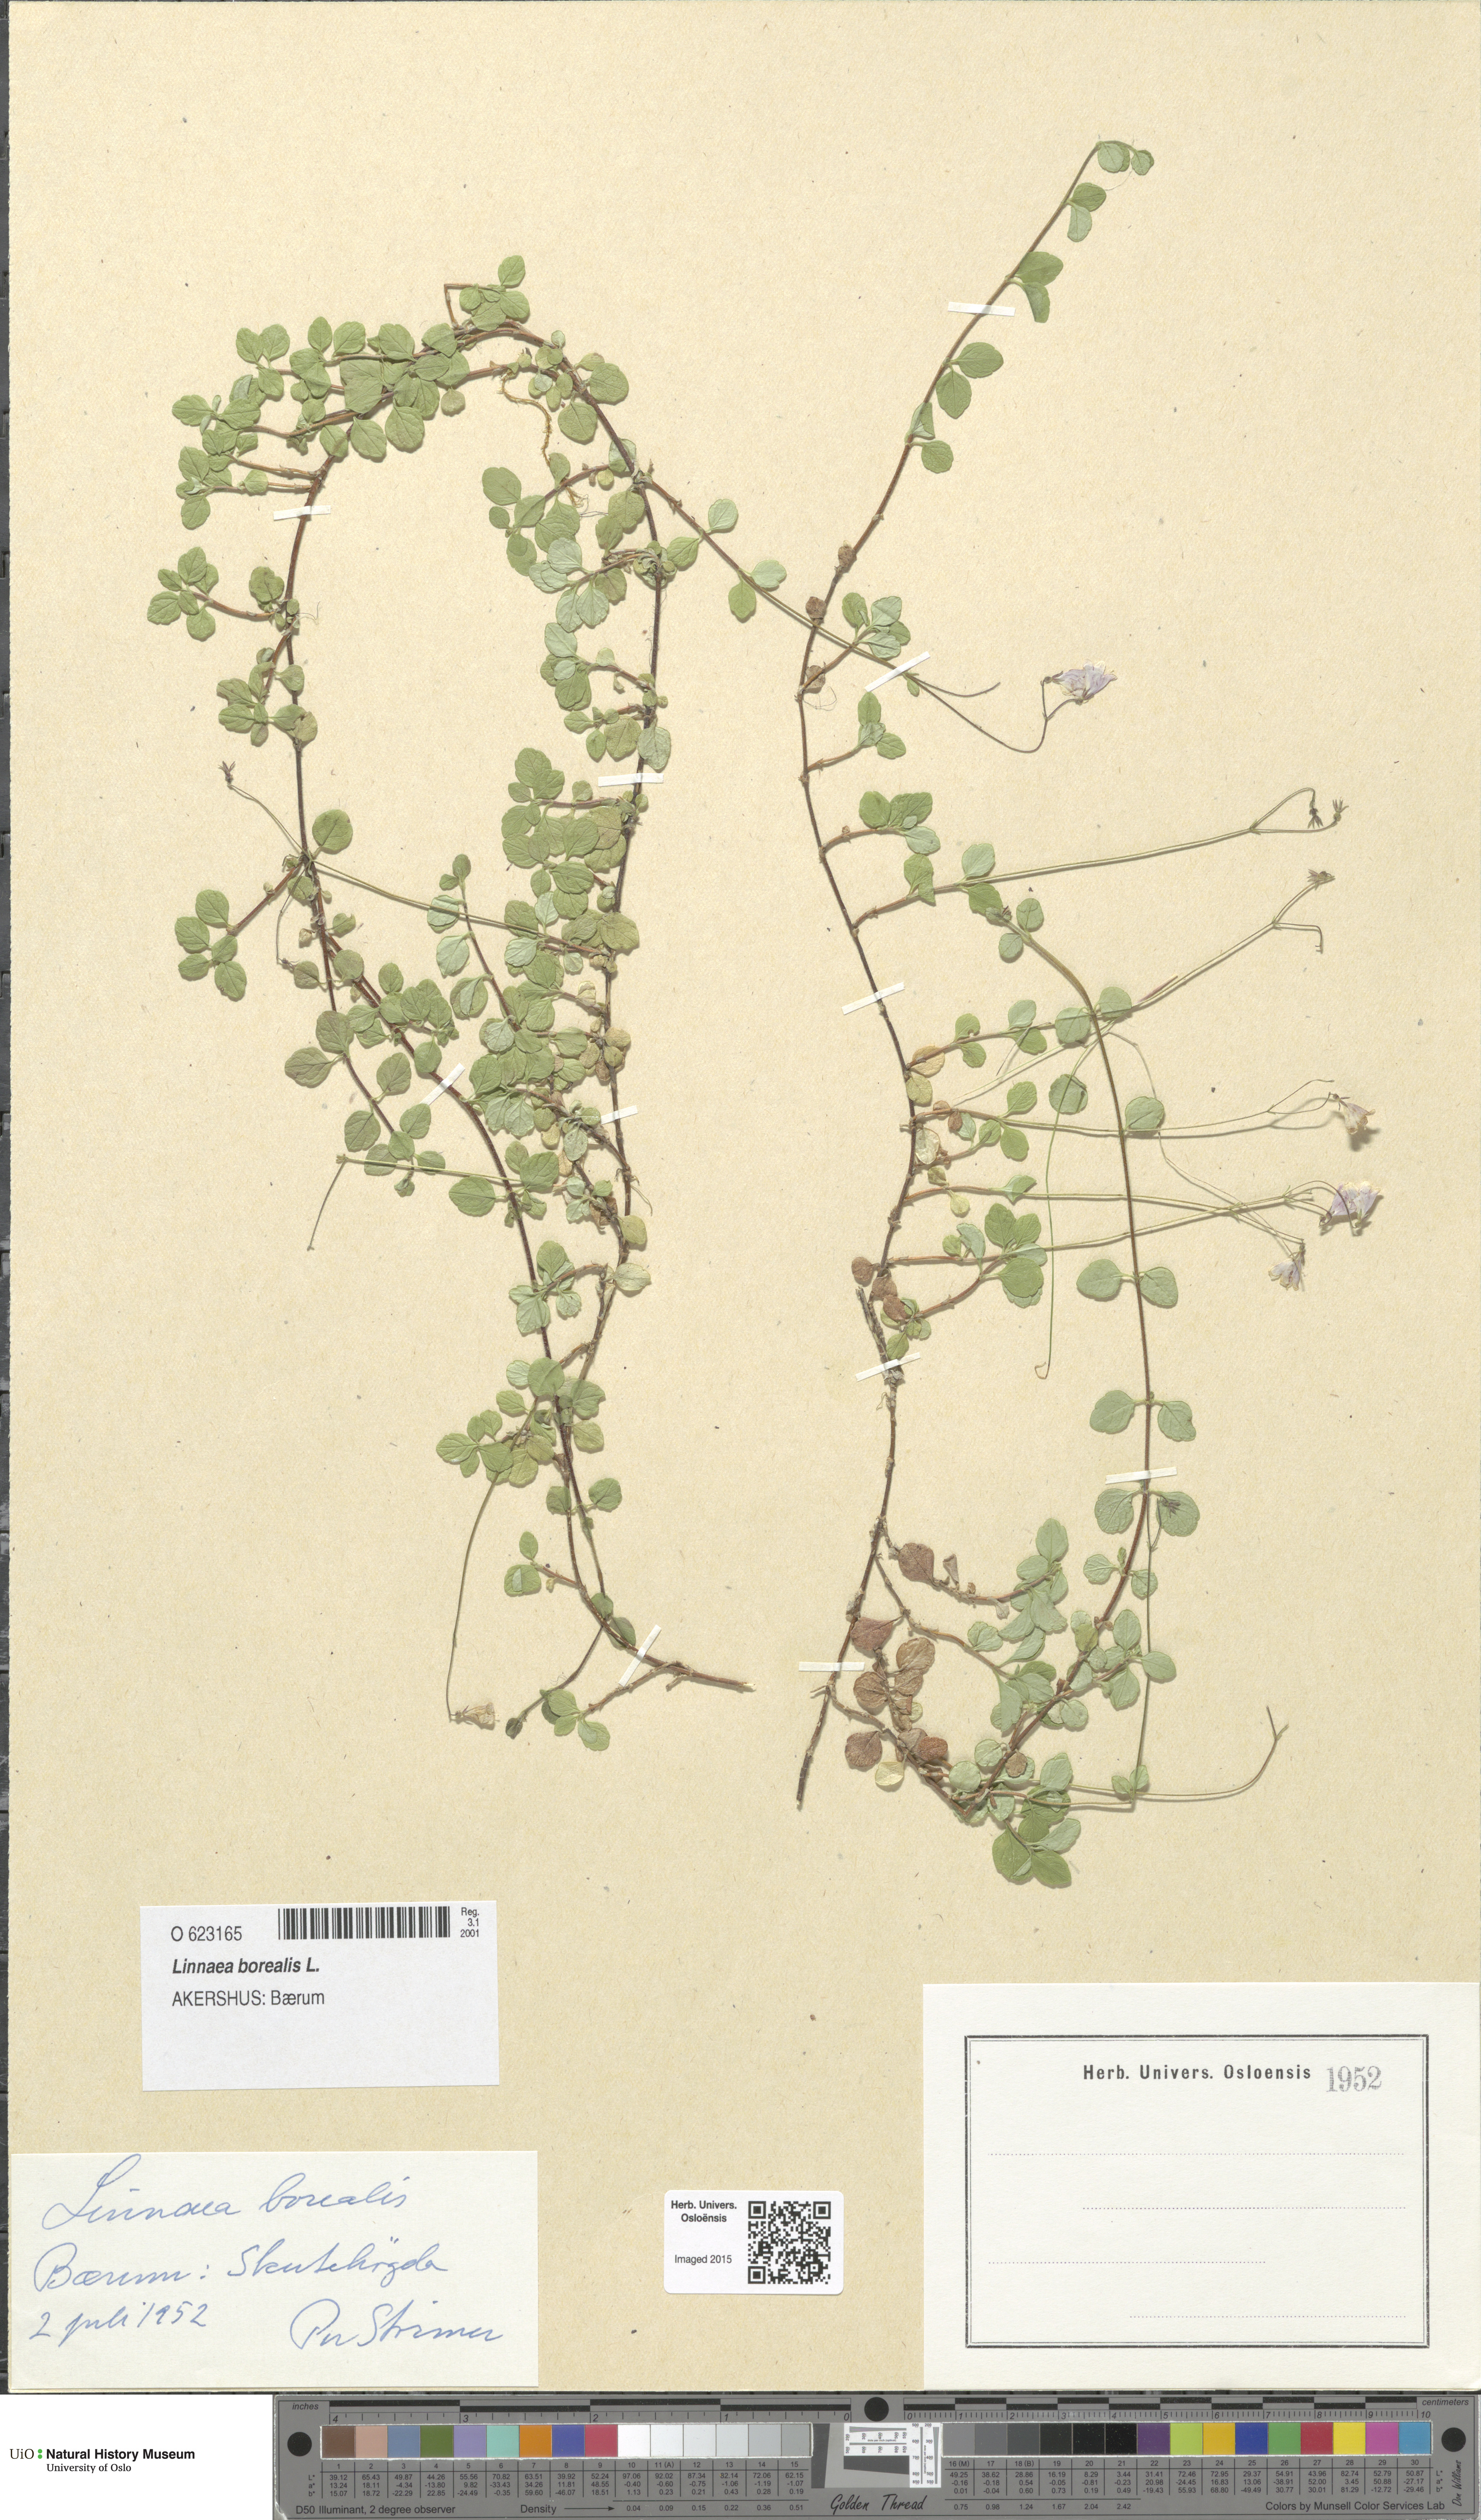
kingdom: Plantae
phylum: Tracheophyta
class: Magnoliopsida
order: Dipsacales
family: Caprifoliaceae
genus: Linnaea
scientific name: Linnaea borealis
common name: Twinflower
